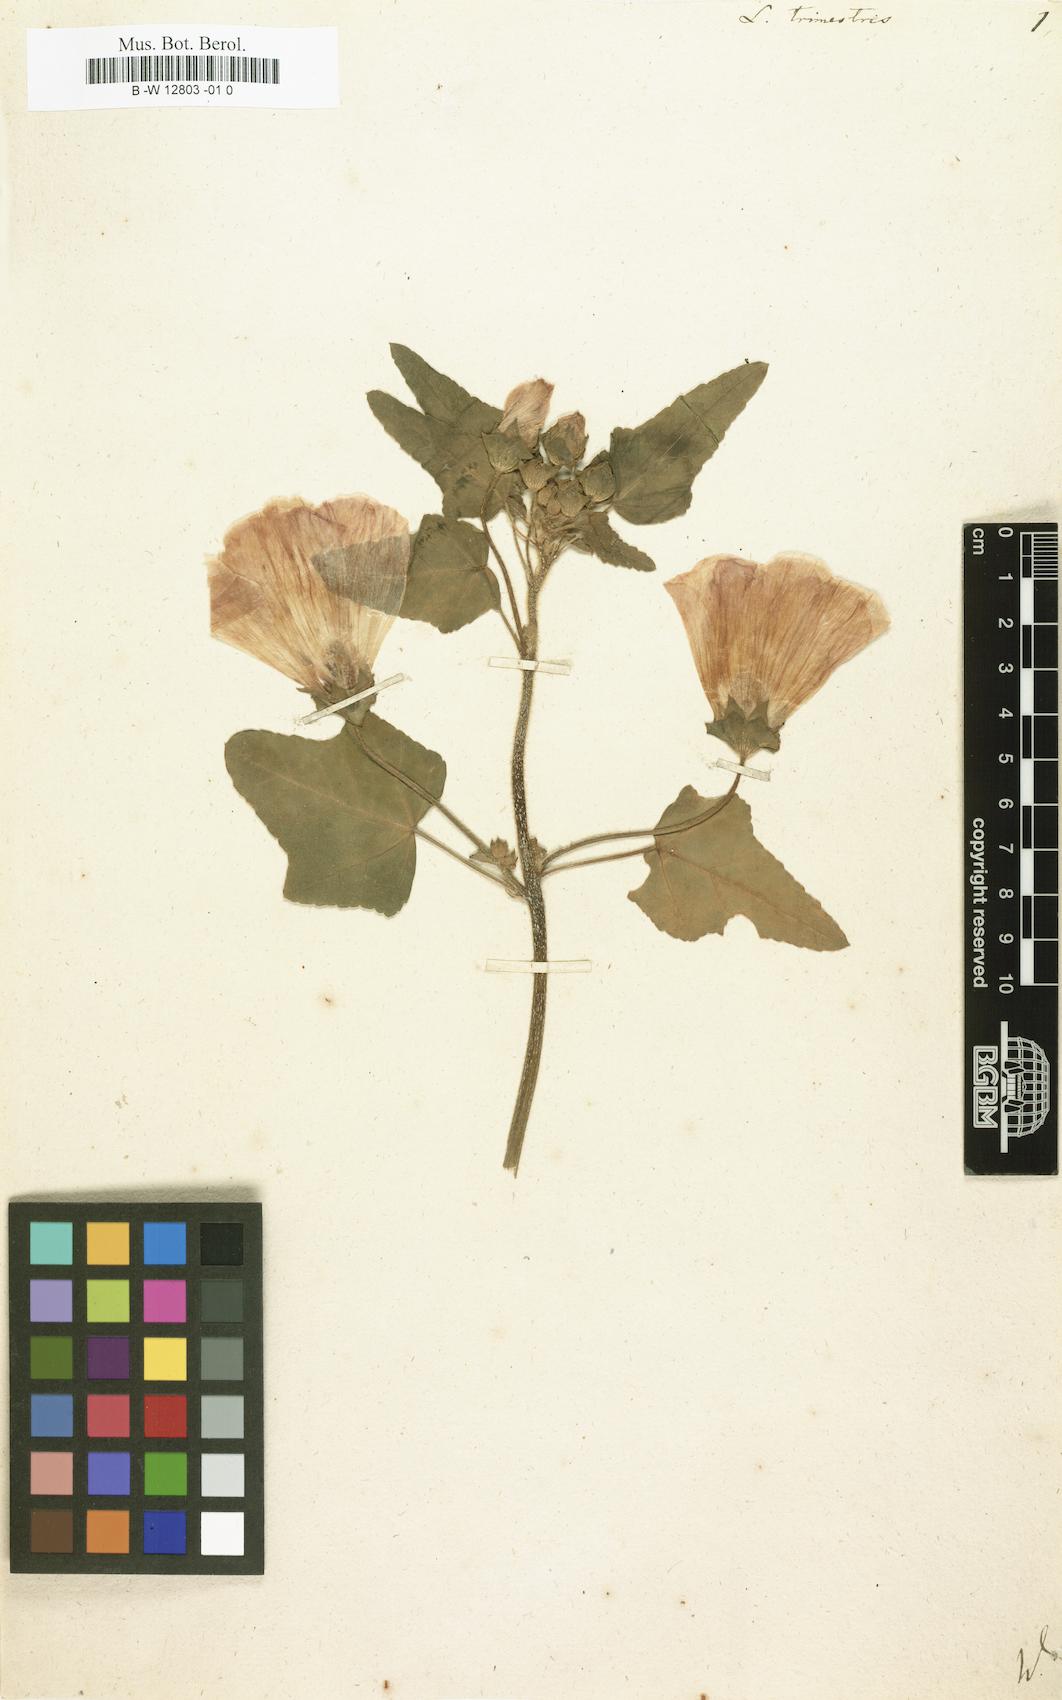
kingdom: Plantae
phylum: Tracheophyta
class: Magnoliopsida
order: Malvales
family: Malvaceae
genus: Malva
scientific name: Malva trimestris
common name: Royal mallow
